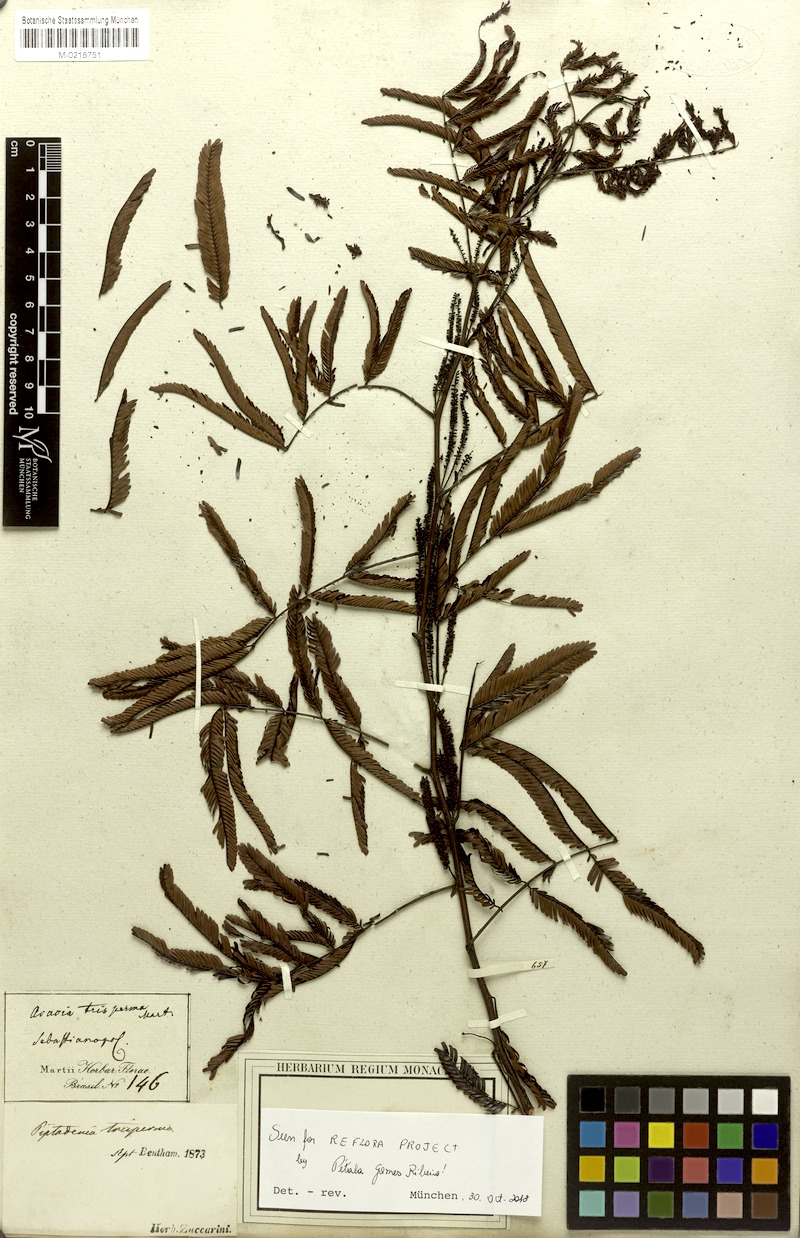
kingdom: Plantae
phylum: Tracheophyta
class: Magnoliopsida
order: Fabales
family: Fabaceae
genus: Piptadenia
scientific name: Piptadenia trisperma
